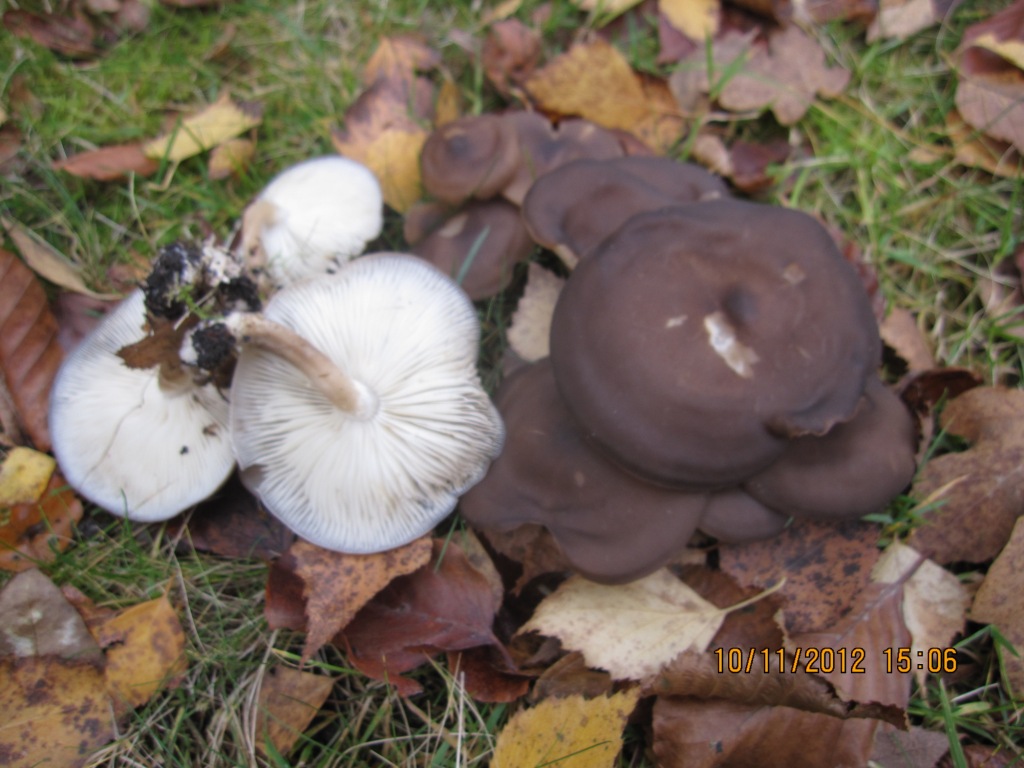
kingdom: Fungi
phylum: Basidiomycota
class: Agaricomycetes
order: Agaricales
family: Lyophyllaceae
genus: Lyophyllum
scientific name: Lyophyllum decastes
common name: Clustered domecap
